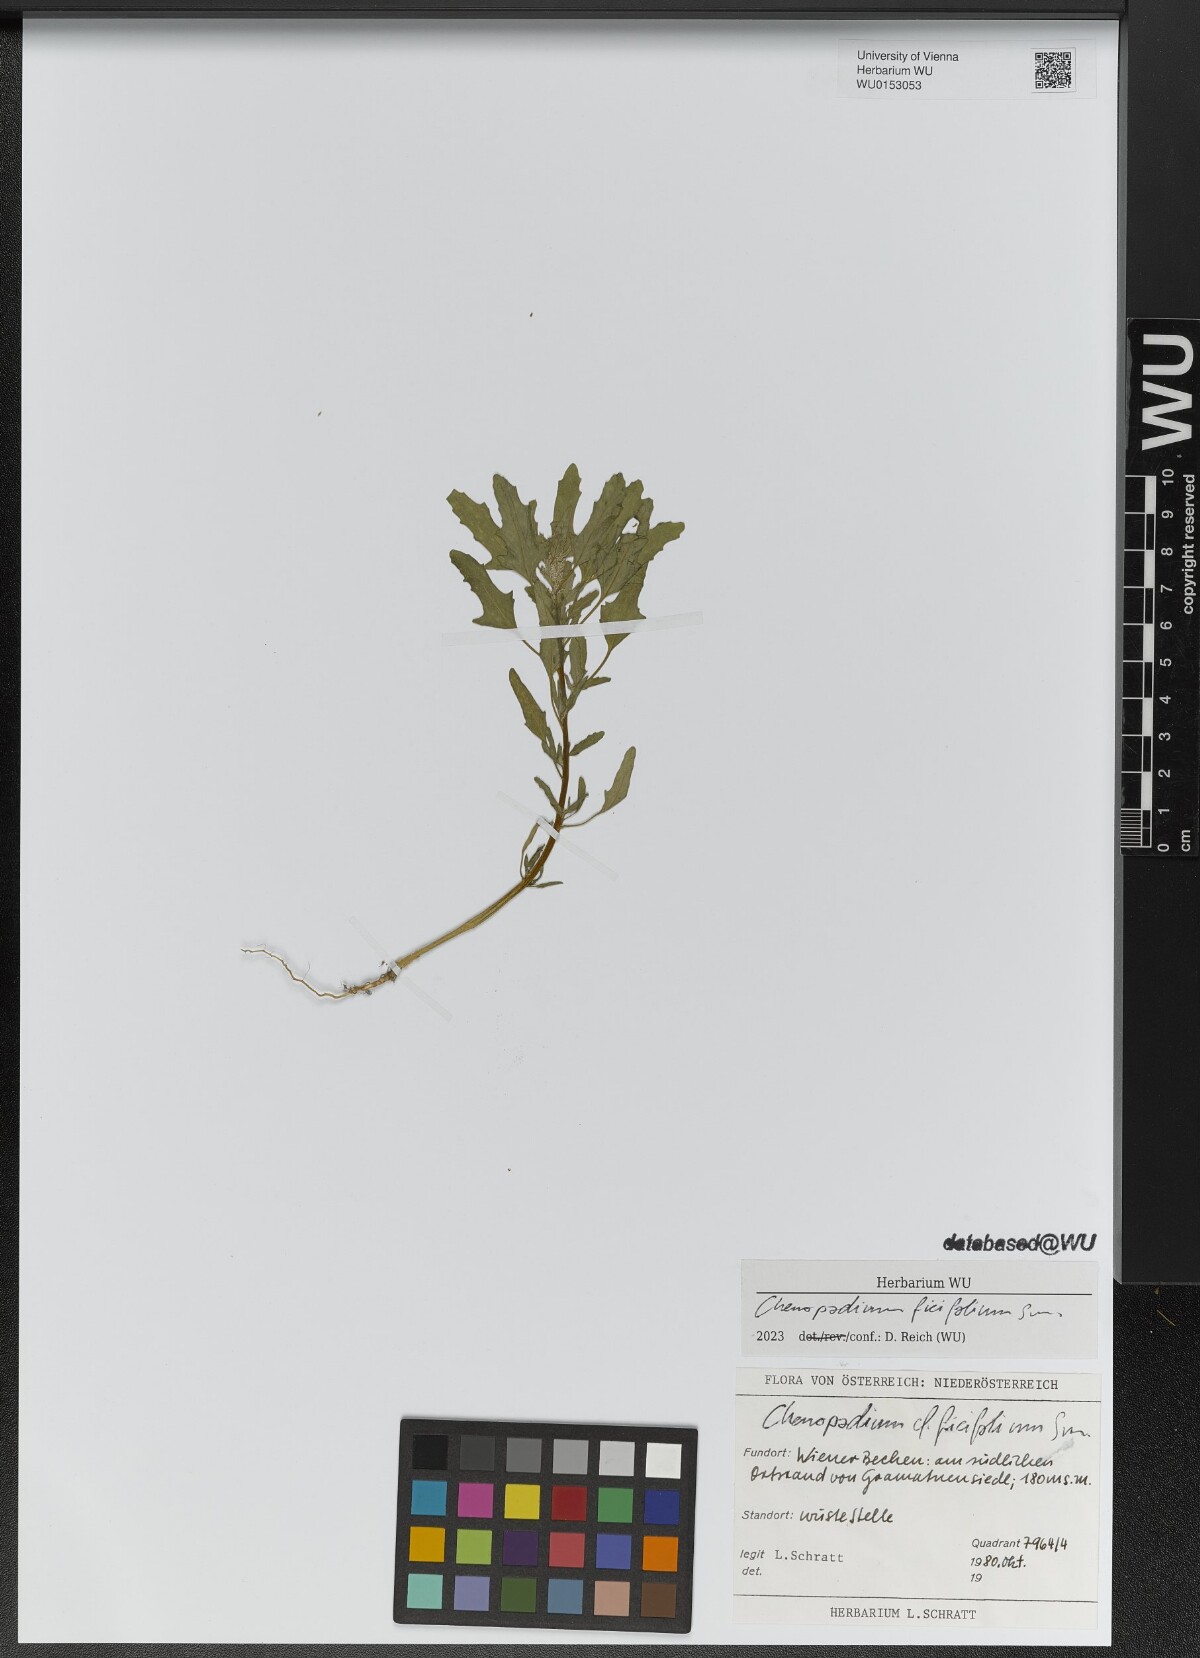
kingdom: Plantae
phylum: Tracheophyta
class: Magnoliopsida
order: Caryophyllales
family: Amaranthaceae
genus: Chenopodium
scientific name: Chenopodium ficifolium
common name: Fig-leaved goosefoot
